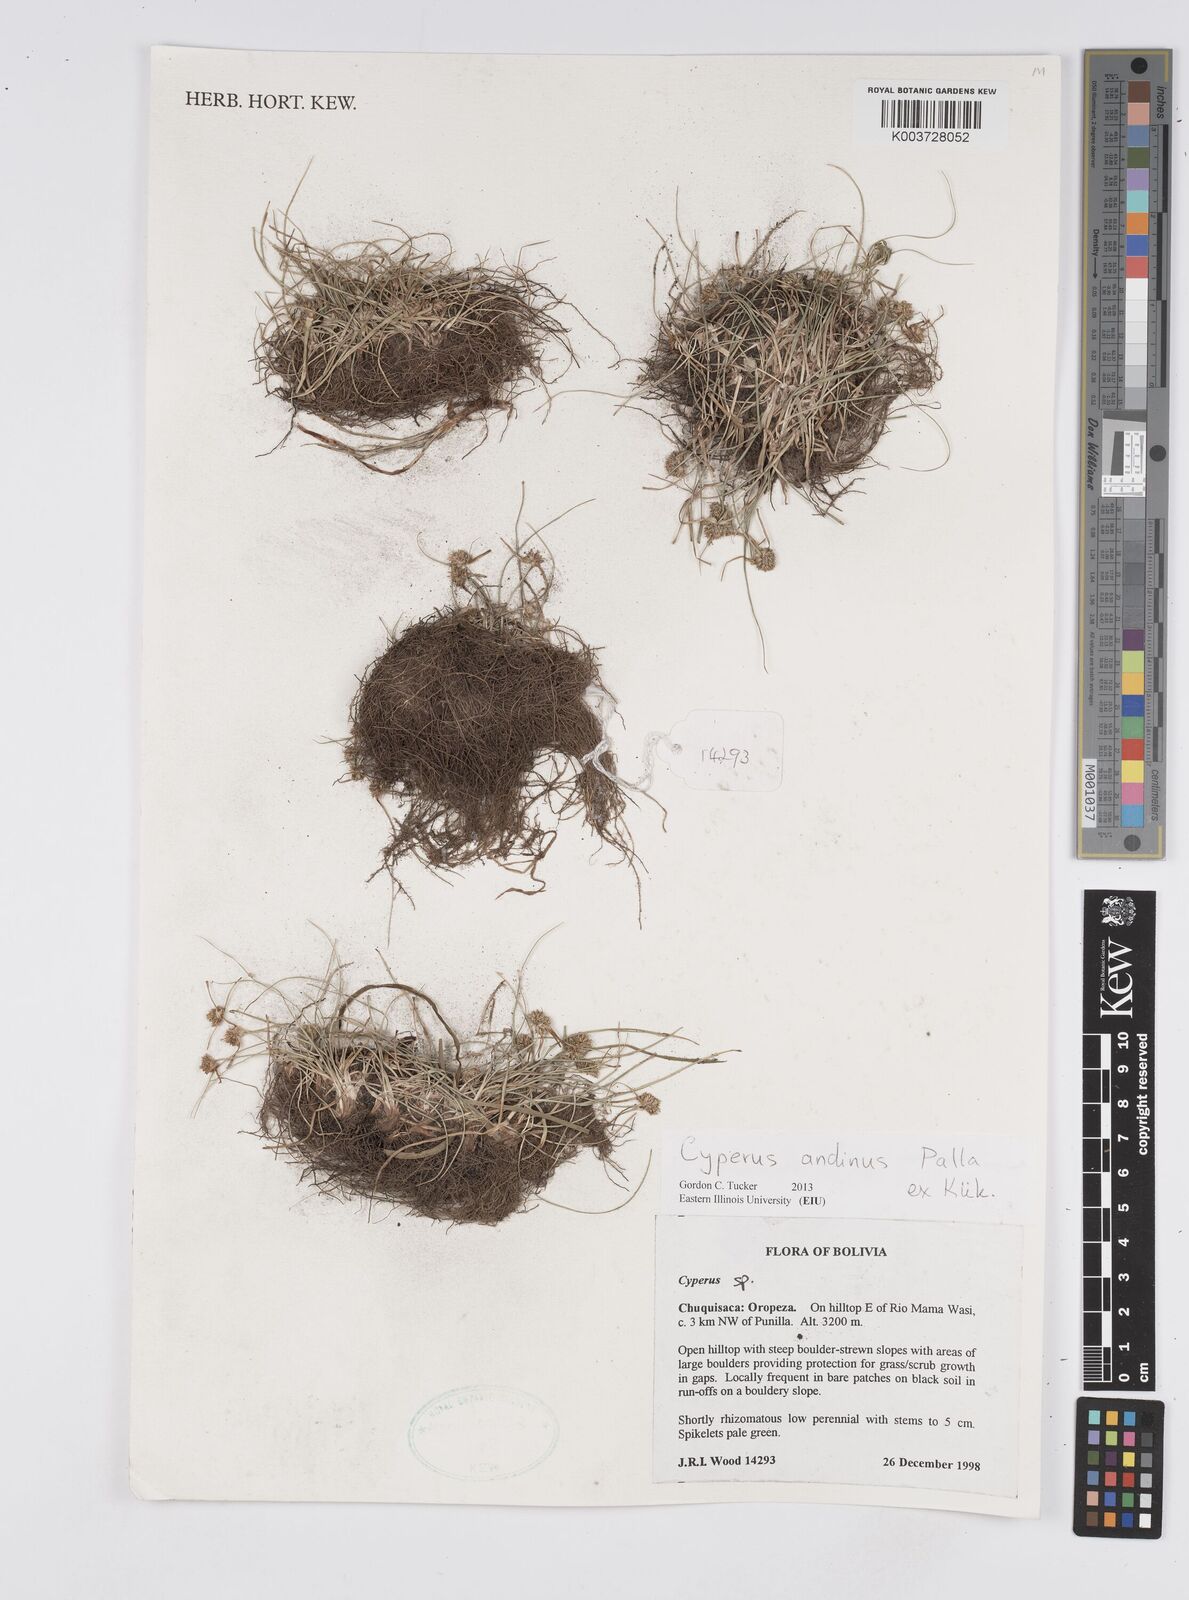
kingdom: Plantae
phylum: Tracheophyta
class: Liliopsida
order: Poales
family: Cyperaceae
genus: Cyperus
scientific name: Cyperus seslerioides
